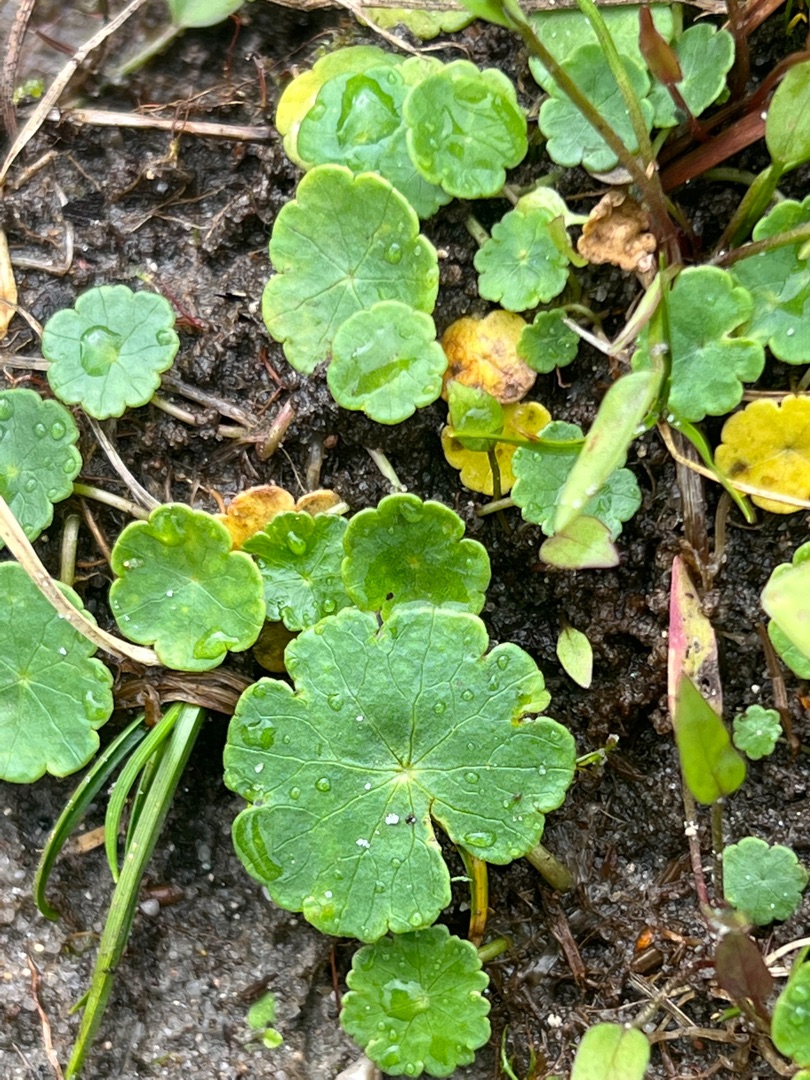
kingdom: Plantae
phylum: Tracheophyta
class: Magnoliopsida
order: Apiales
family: Araliaceae
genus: Hydrocotyle
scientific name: Hydrocotyle vulgaris
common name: Vandnavle
